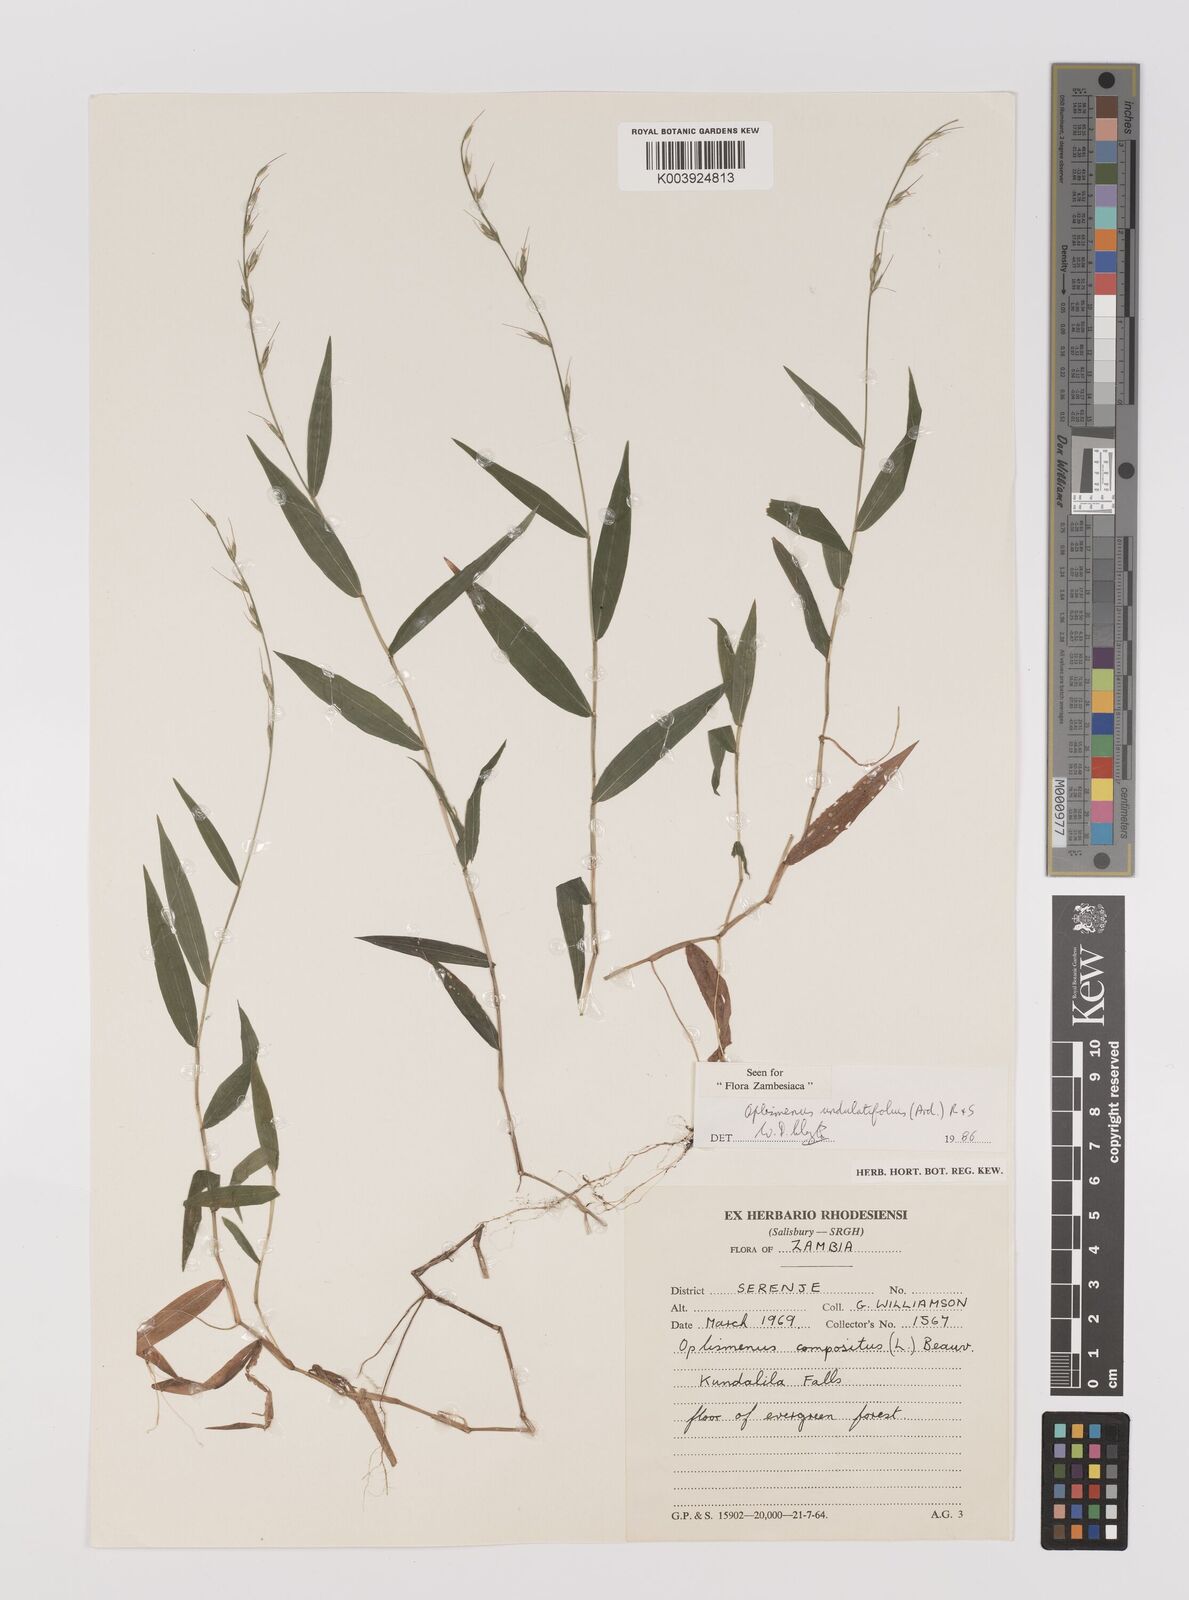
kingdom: Plantae
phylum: Tracheophyta
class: Liliopsida
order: Poales
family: Poaceae
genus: Oplismenus
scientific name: Oplismenus undulatifolius
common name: Wavyleaf basketgrass
